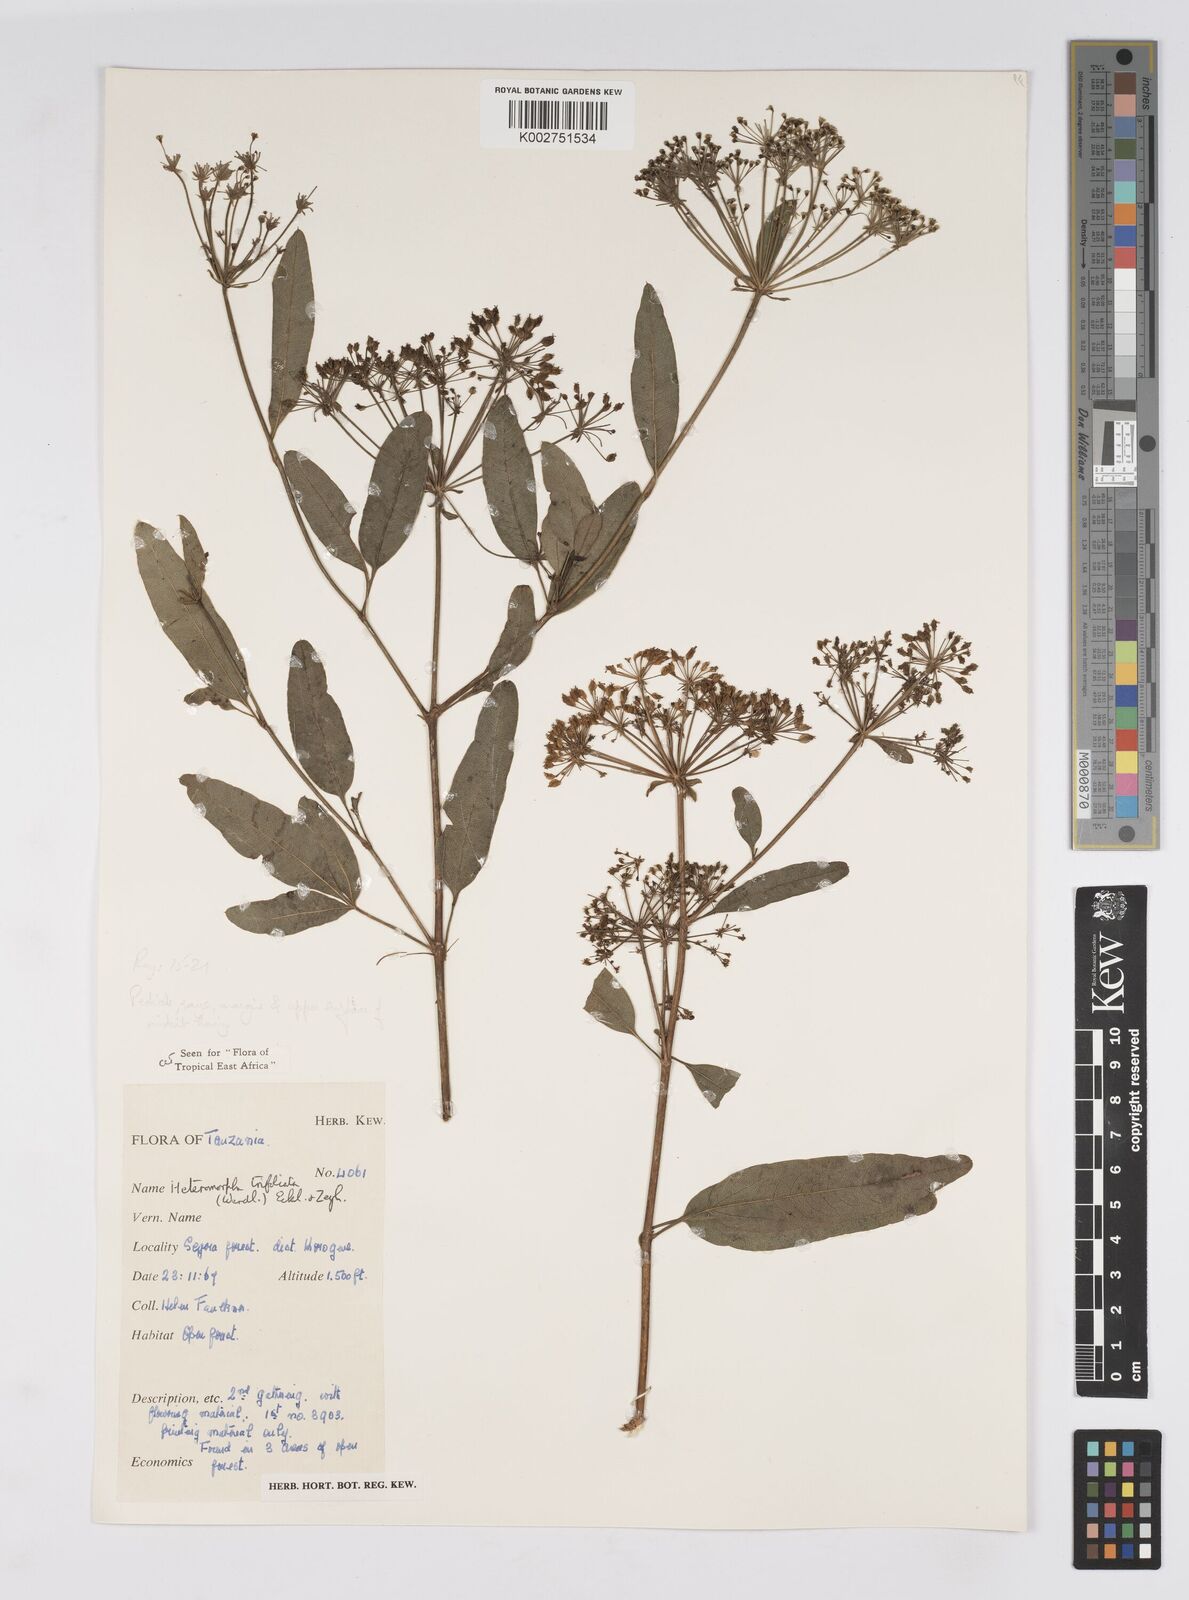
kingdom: Plantae
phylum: Tracheophyta
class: Magnoliopsida
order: Apiales
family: Apiaceae
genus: Heteromorpha
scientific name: Heteromorpha arborescens
